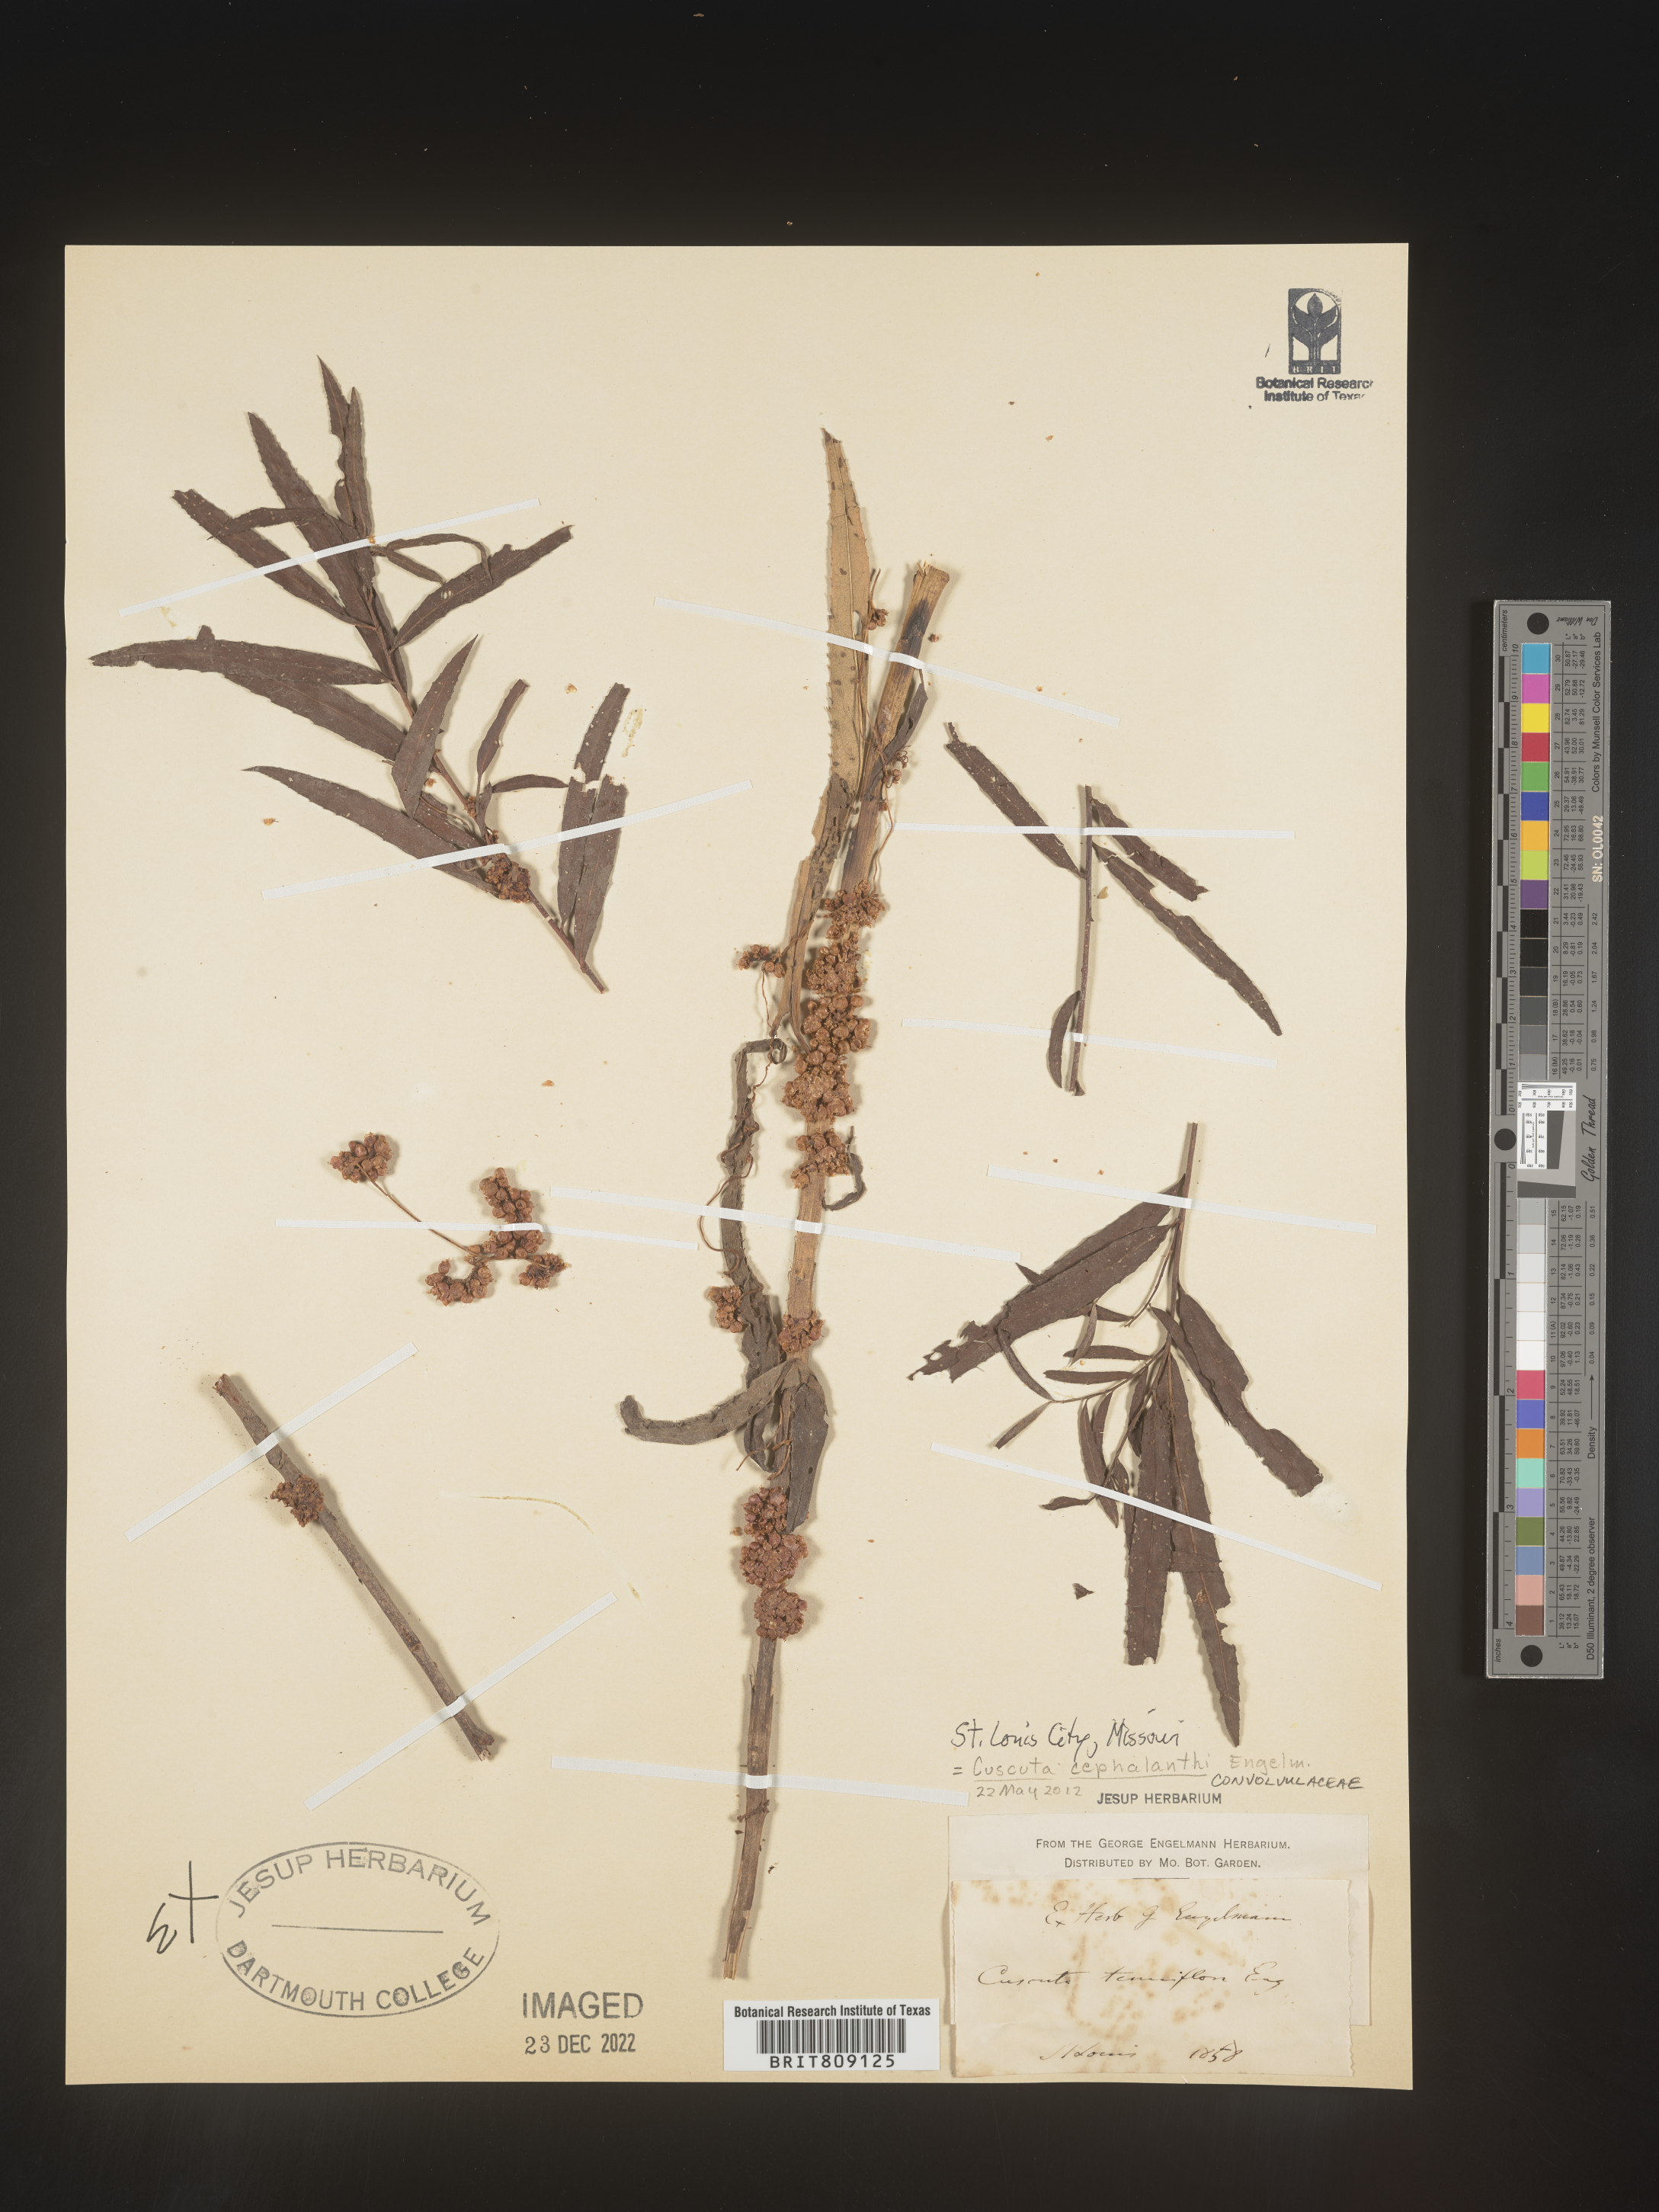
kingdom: Plantae
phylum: Tracheophyta
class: Magnoliopsida
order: Solanales
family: Convolvulaceae
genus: Cuscuta
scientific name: Cuscuta cephalanthi
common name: Button dodder
